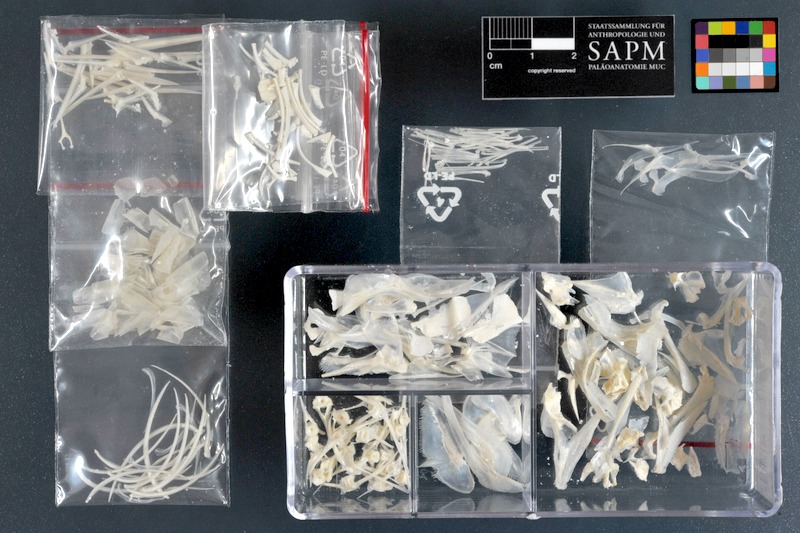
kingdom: Animalia
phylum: Chordata
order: Beryciformes
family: Holocentridae
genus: Myripristis
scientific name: Myripristis murdjan
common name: Big-eye soldierfish
